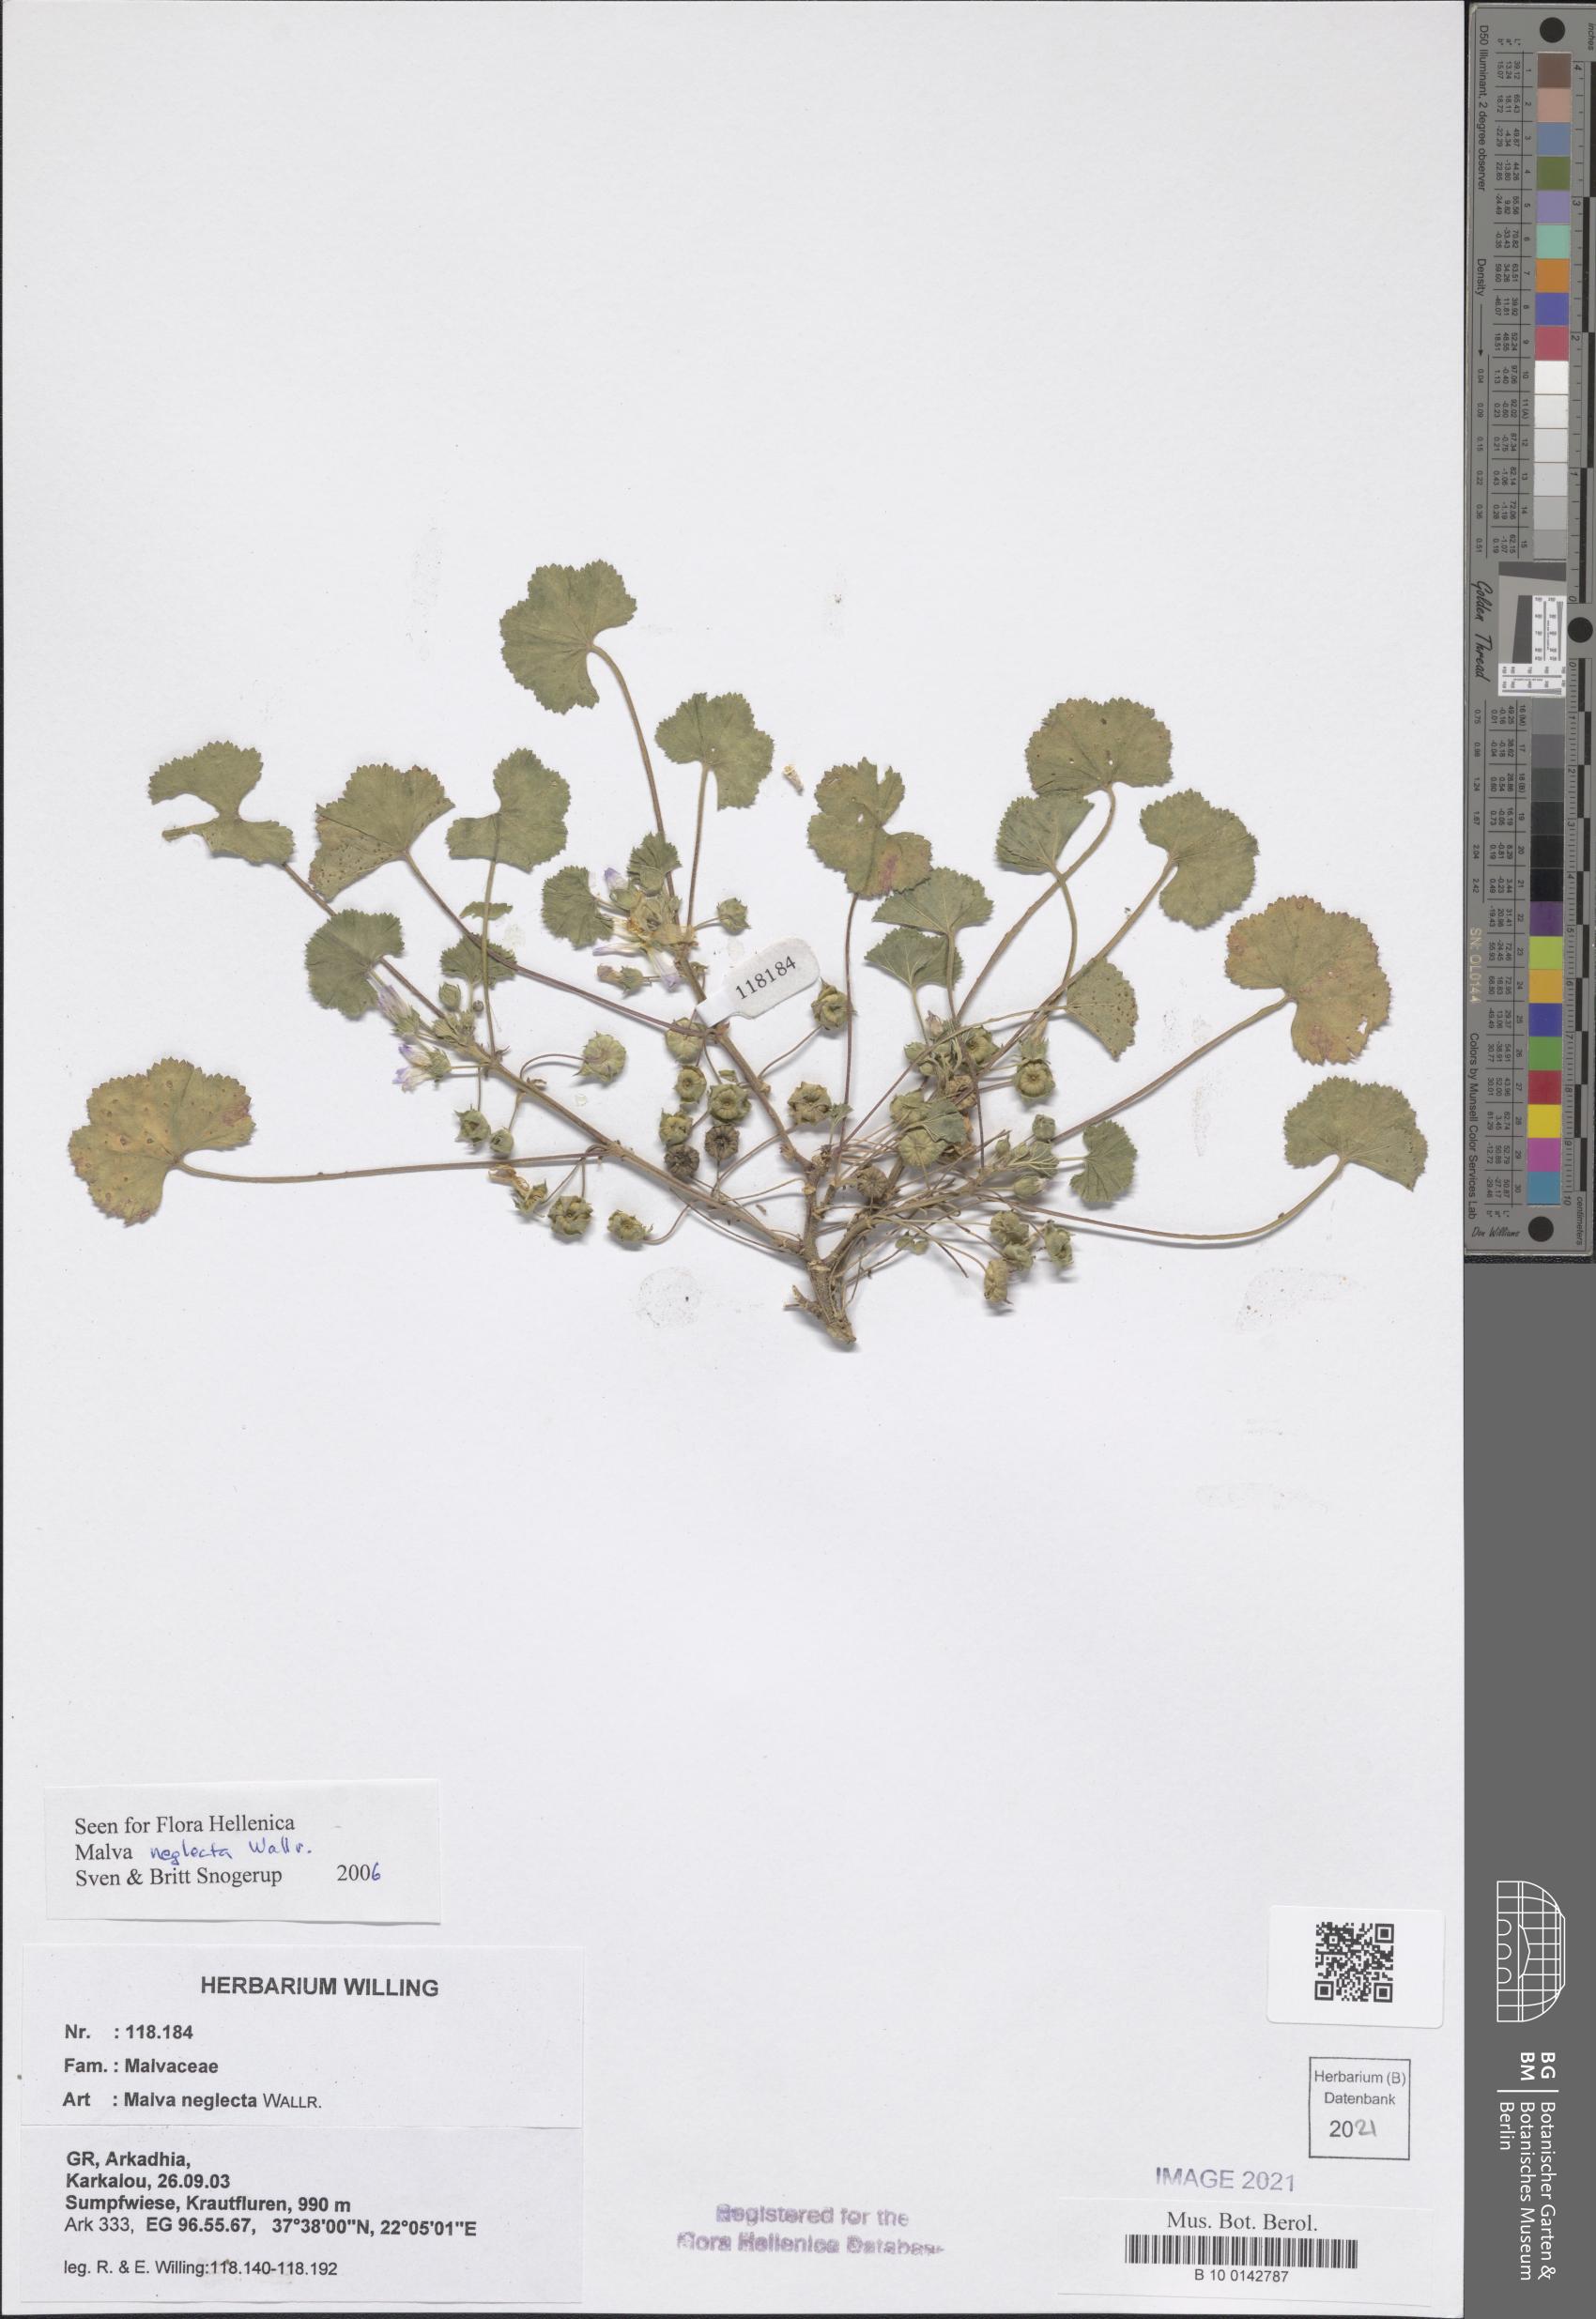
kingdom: Plantae
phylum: Tracheophyta
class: Magnoliopsida
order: Malvales
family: Malvaceae
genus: Malva
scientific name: Malva neglecta
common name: Common mallow
